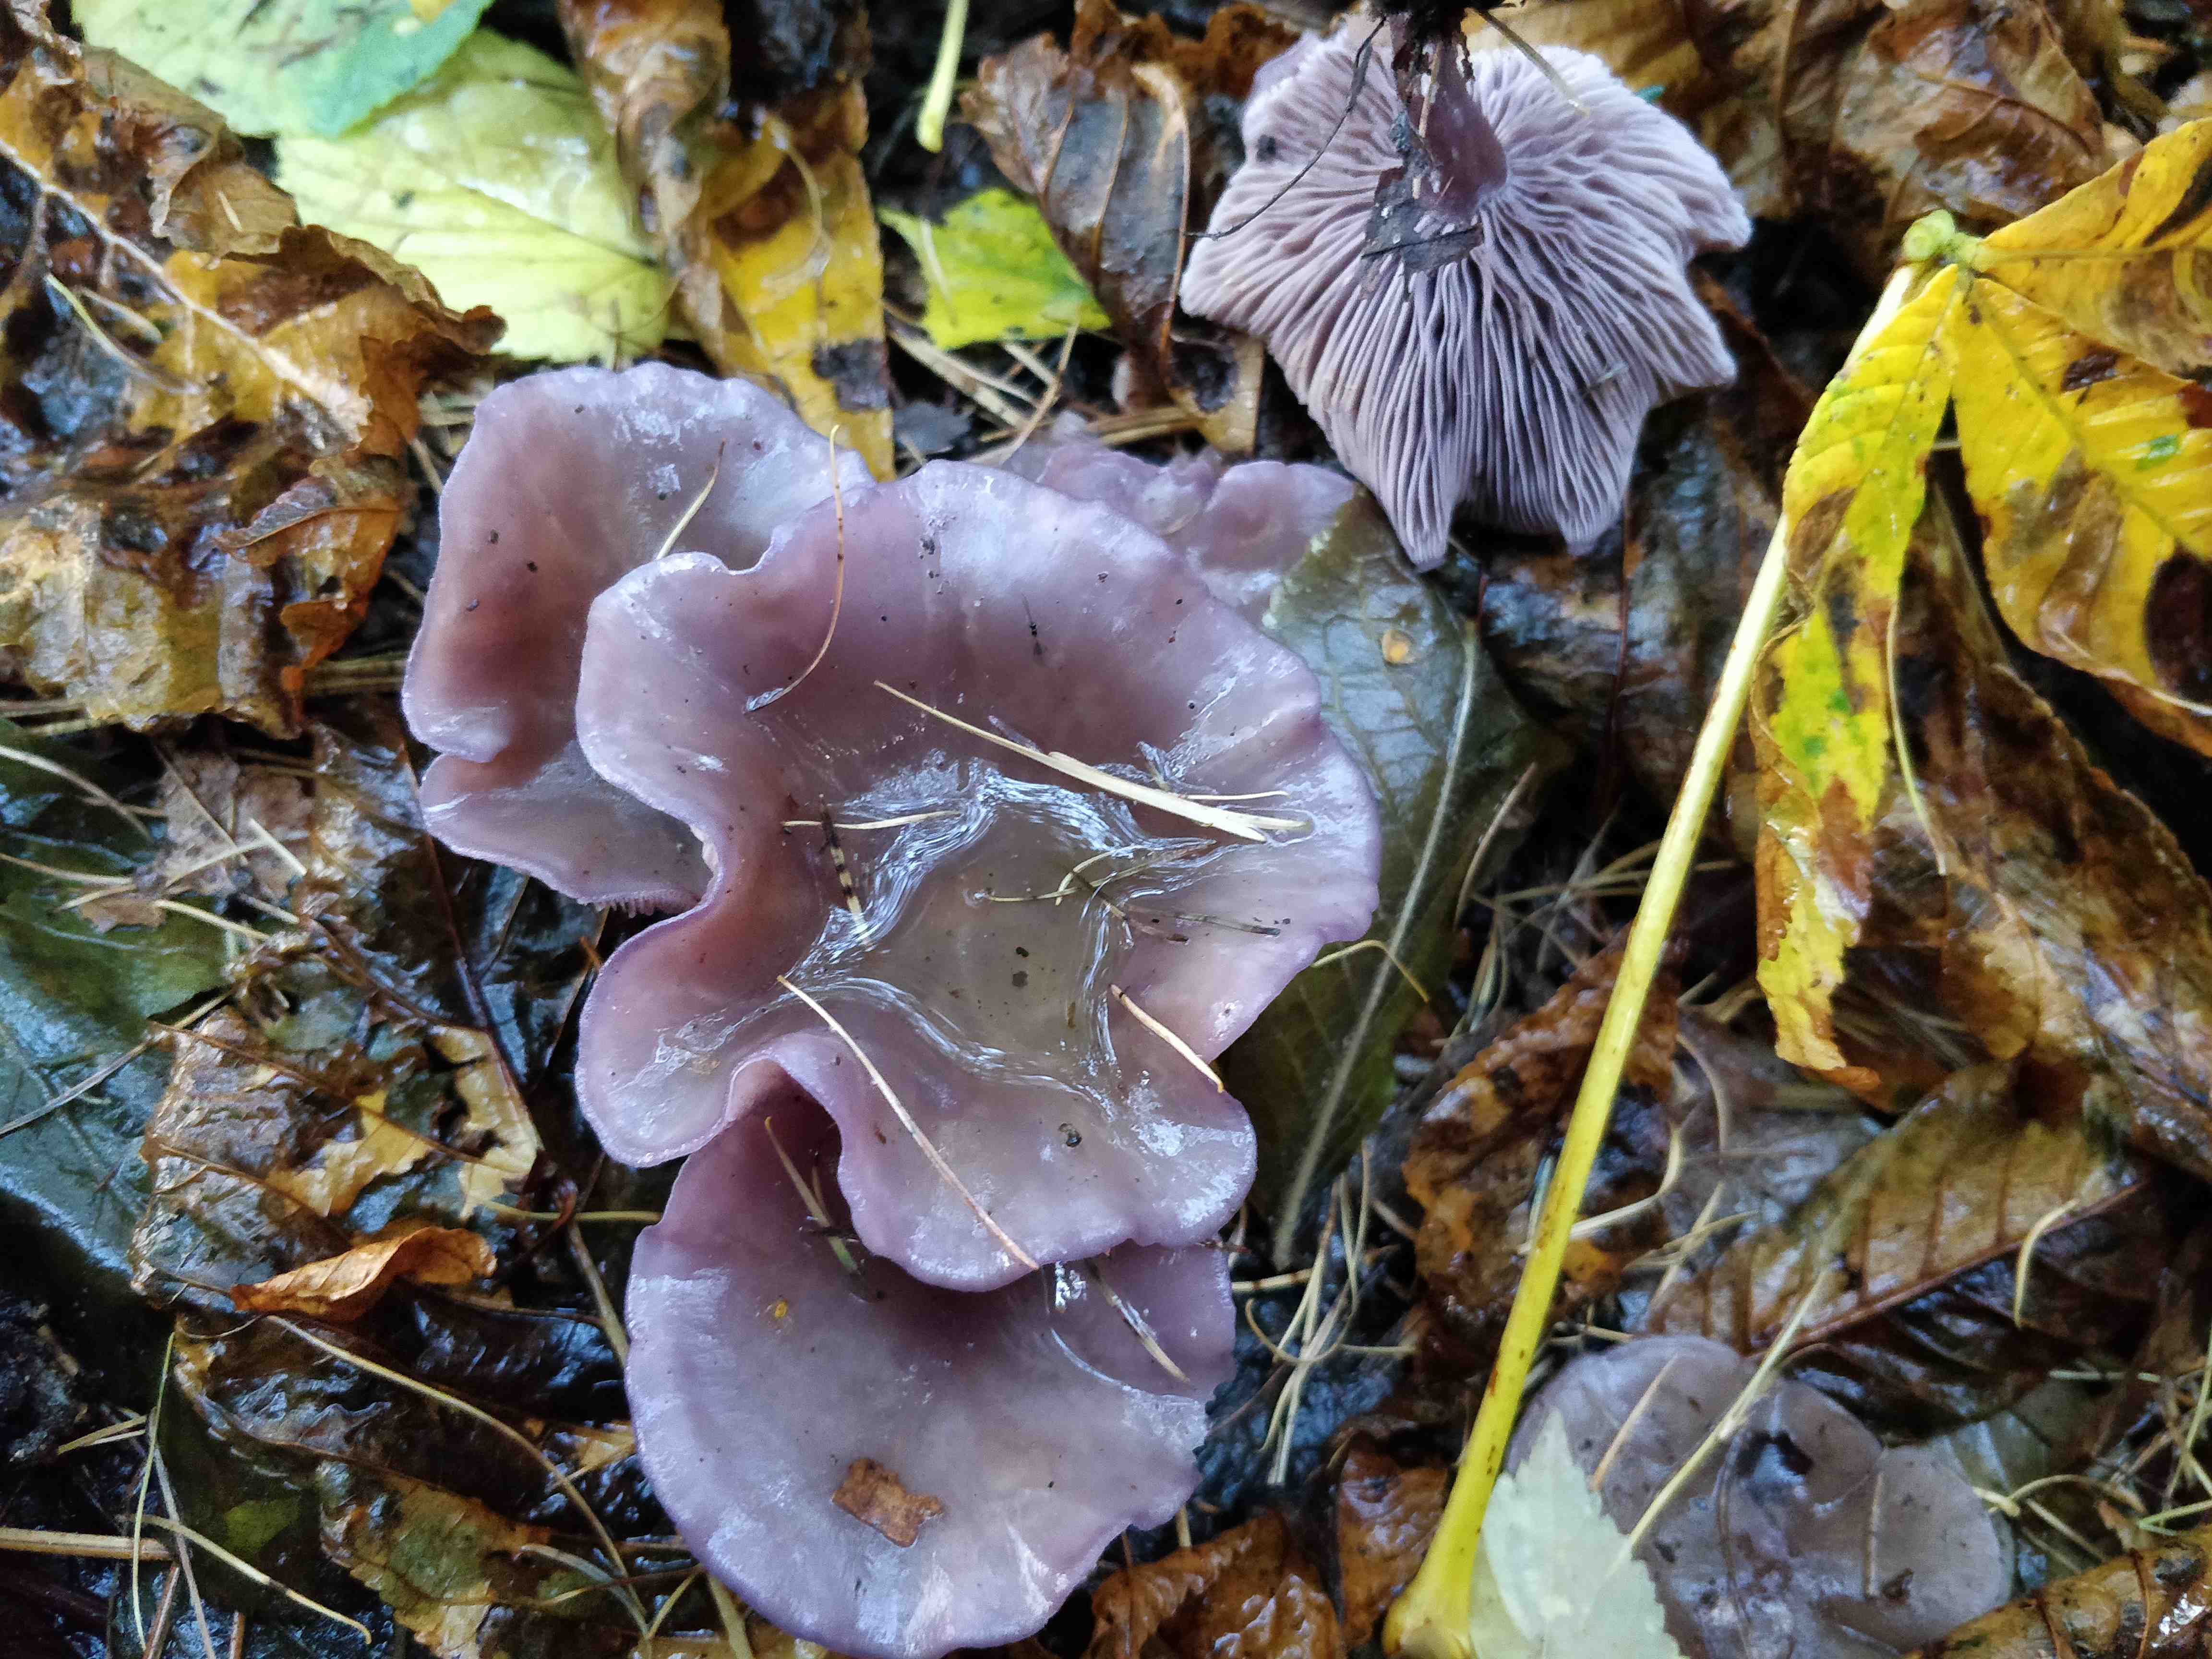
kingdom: Fungi
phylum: Basidiomycota
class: Agaricomycetes
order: Agaricales
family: Tricholomataceae
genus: Lepista
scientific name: Lepista lilacea
